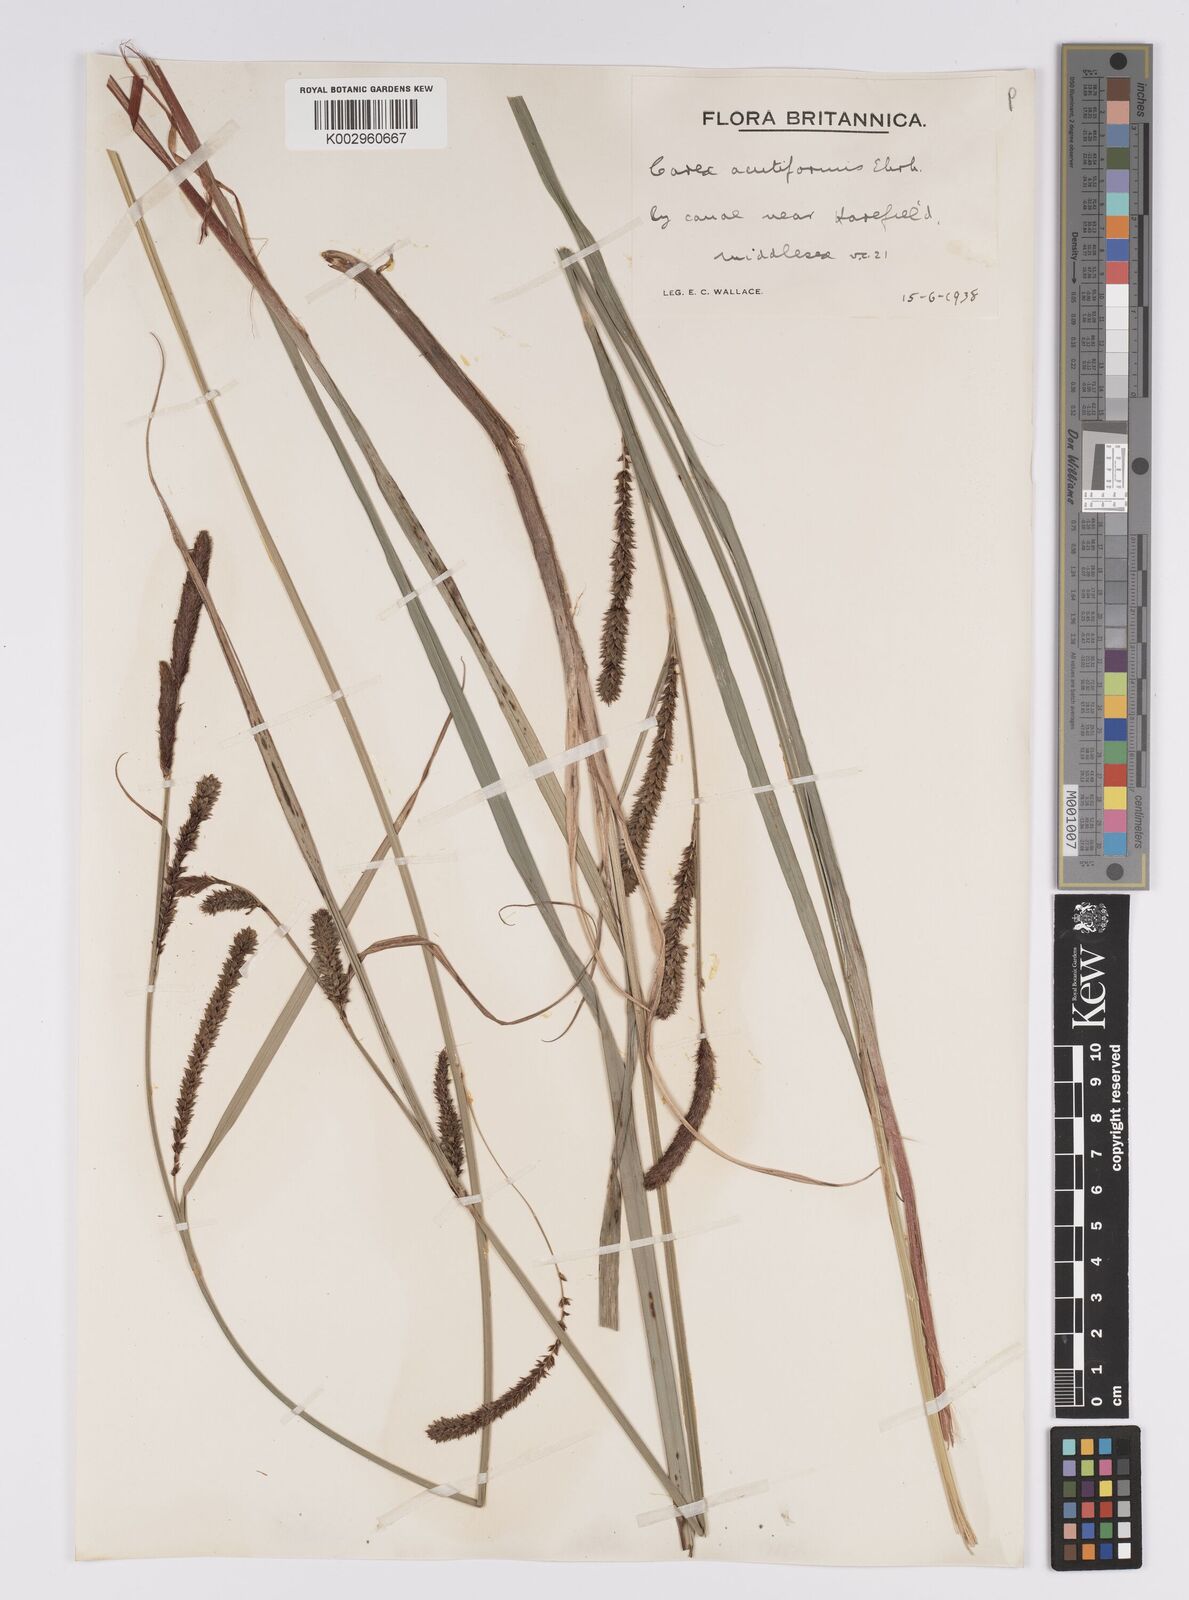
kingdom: Plantae
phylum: Tracheophyta
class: Liliopsida
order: Poales
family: Cyperaceae
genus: Carex
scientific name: Carex acutiformis
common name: Lesser pond-sedge
